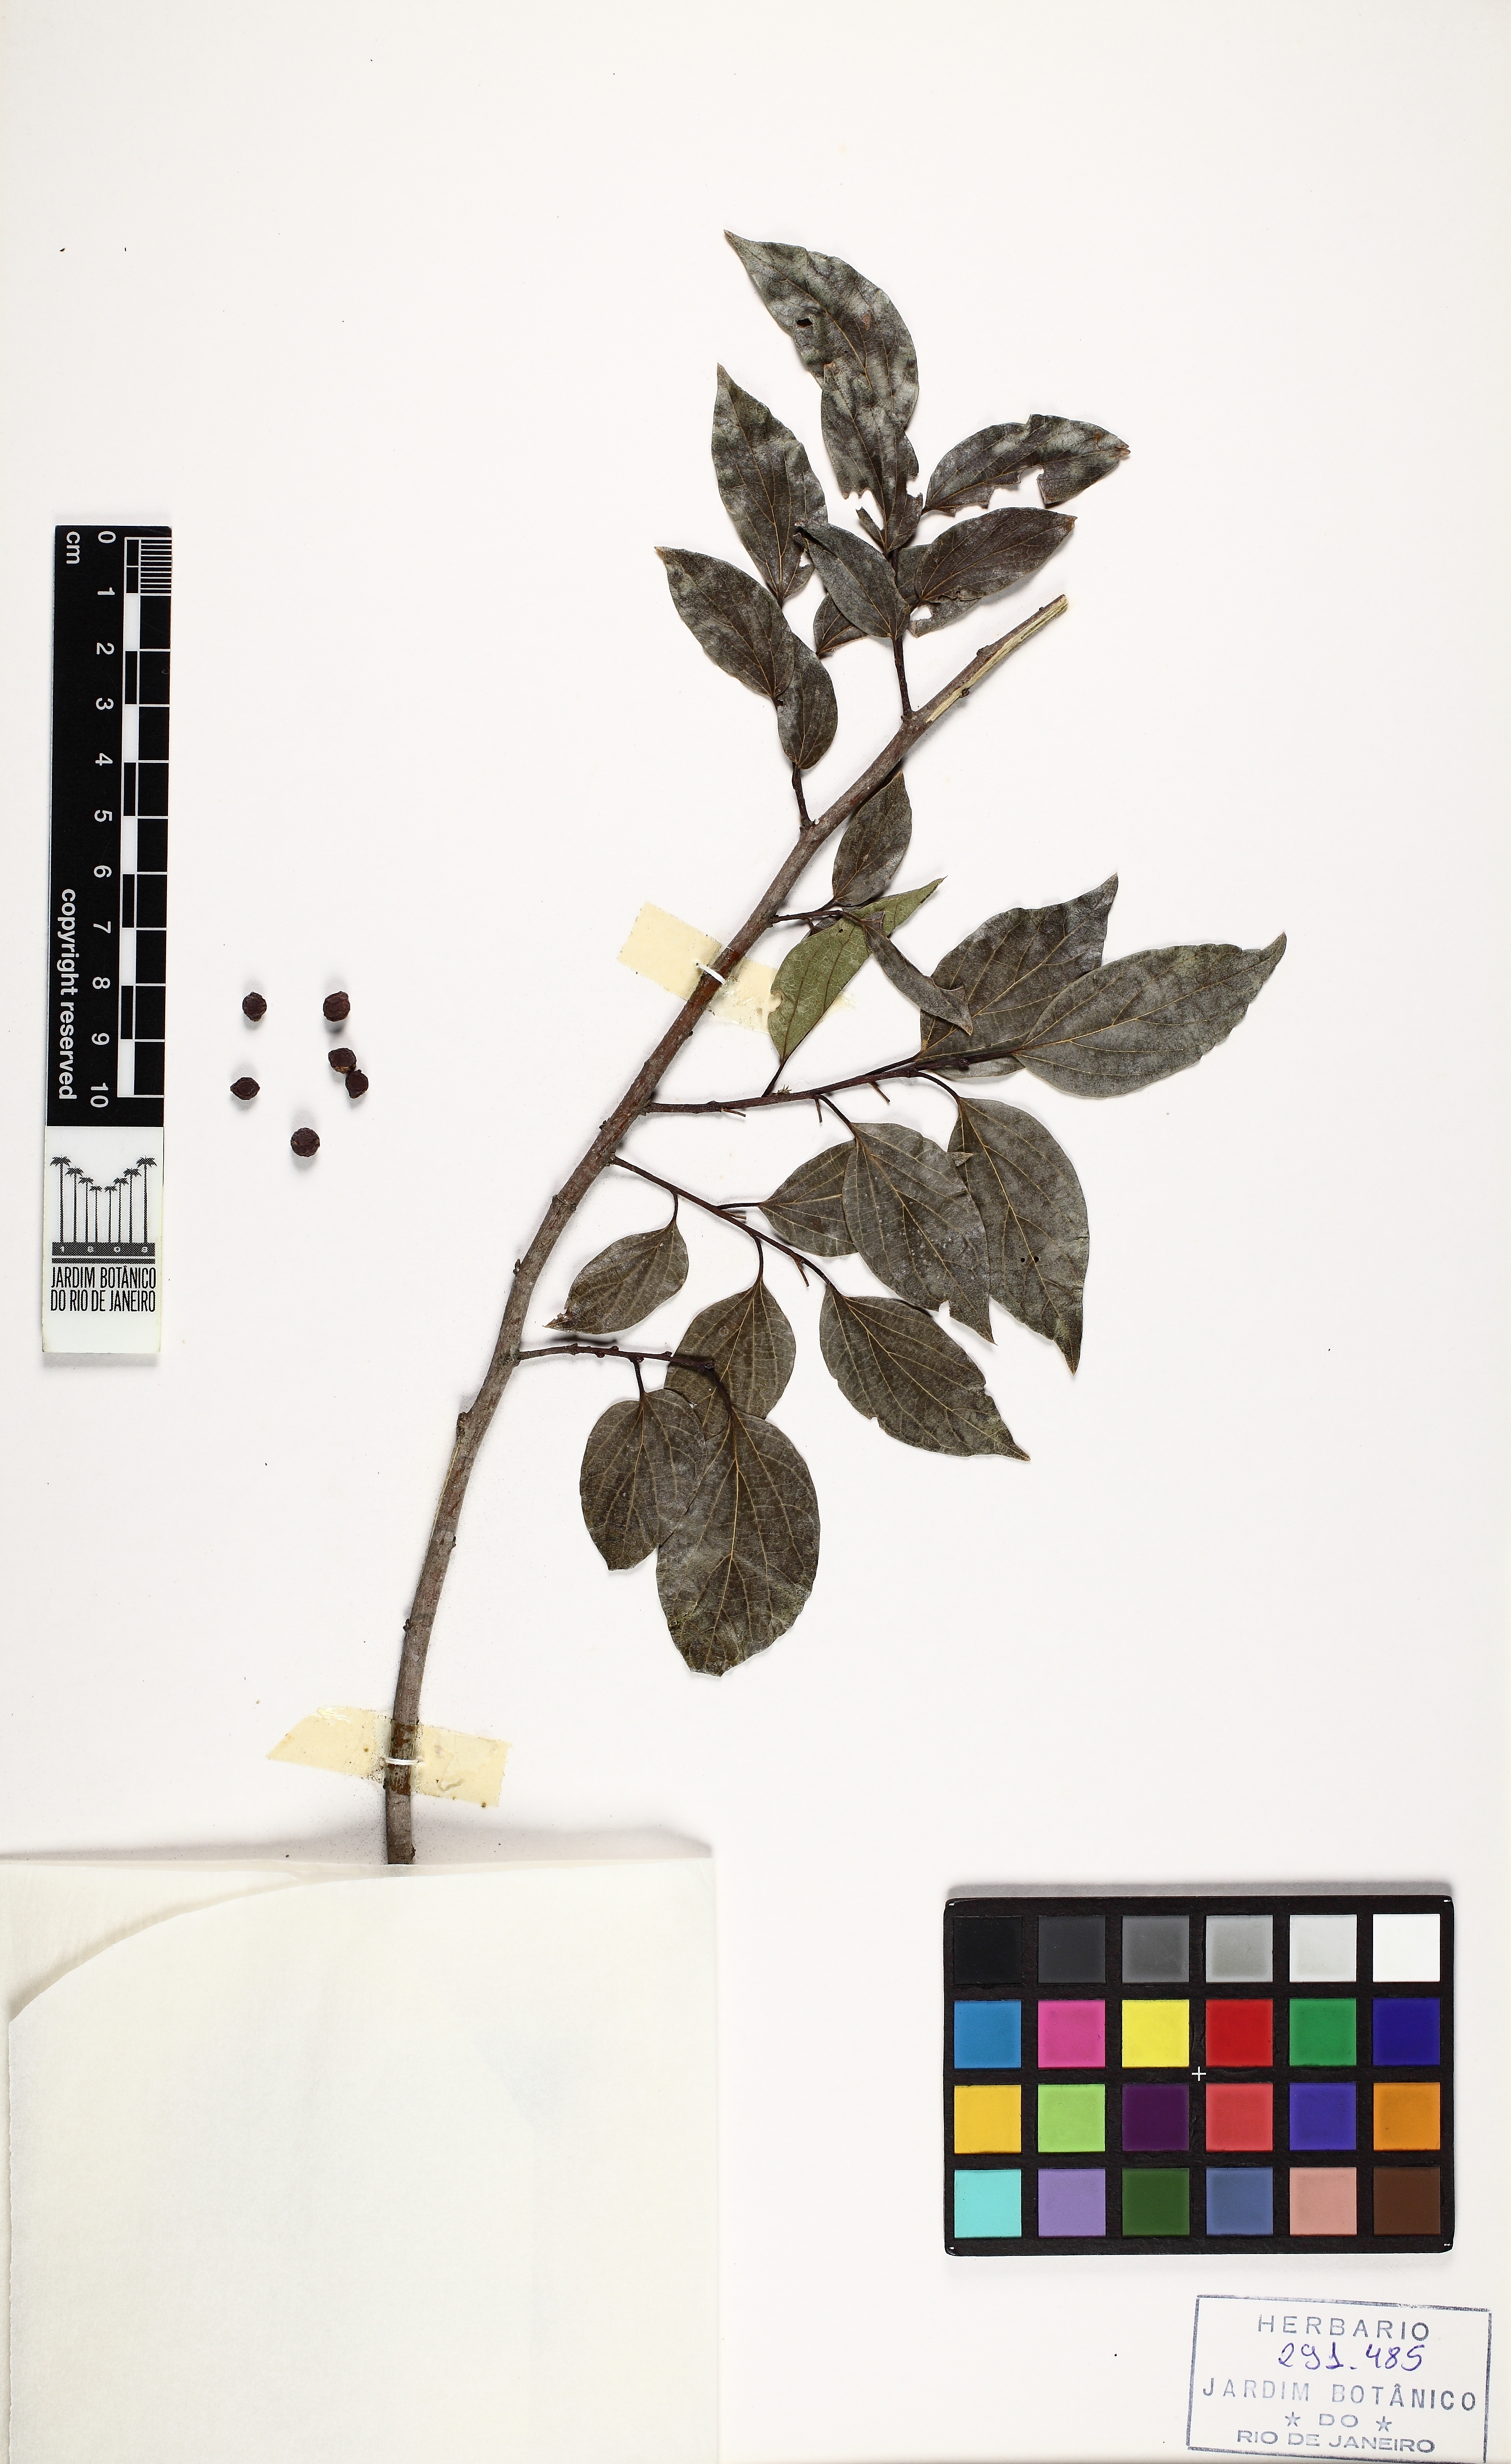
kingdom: Plantae
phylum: Tracheophyta
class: Magnoliopsida
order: Rosales
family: Cannabaceae
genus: Celtis
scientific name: Celtis sinensis
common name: Chinese hackberry
